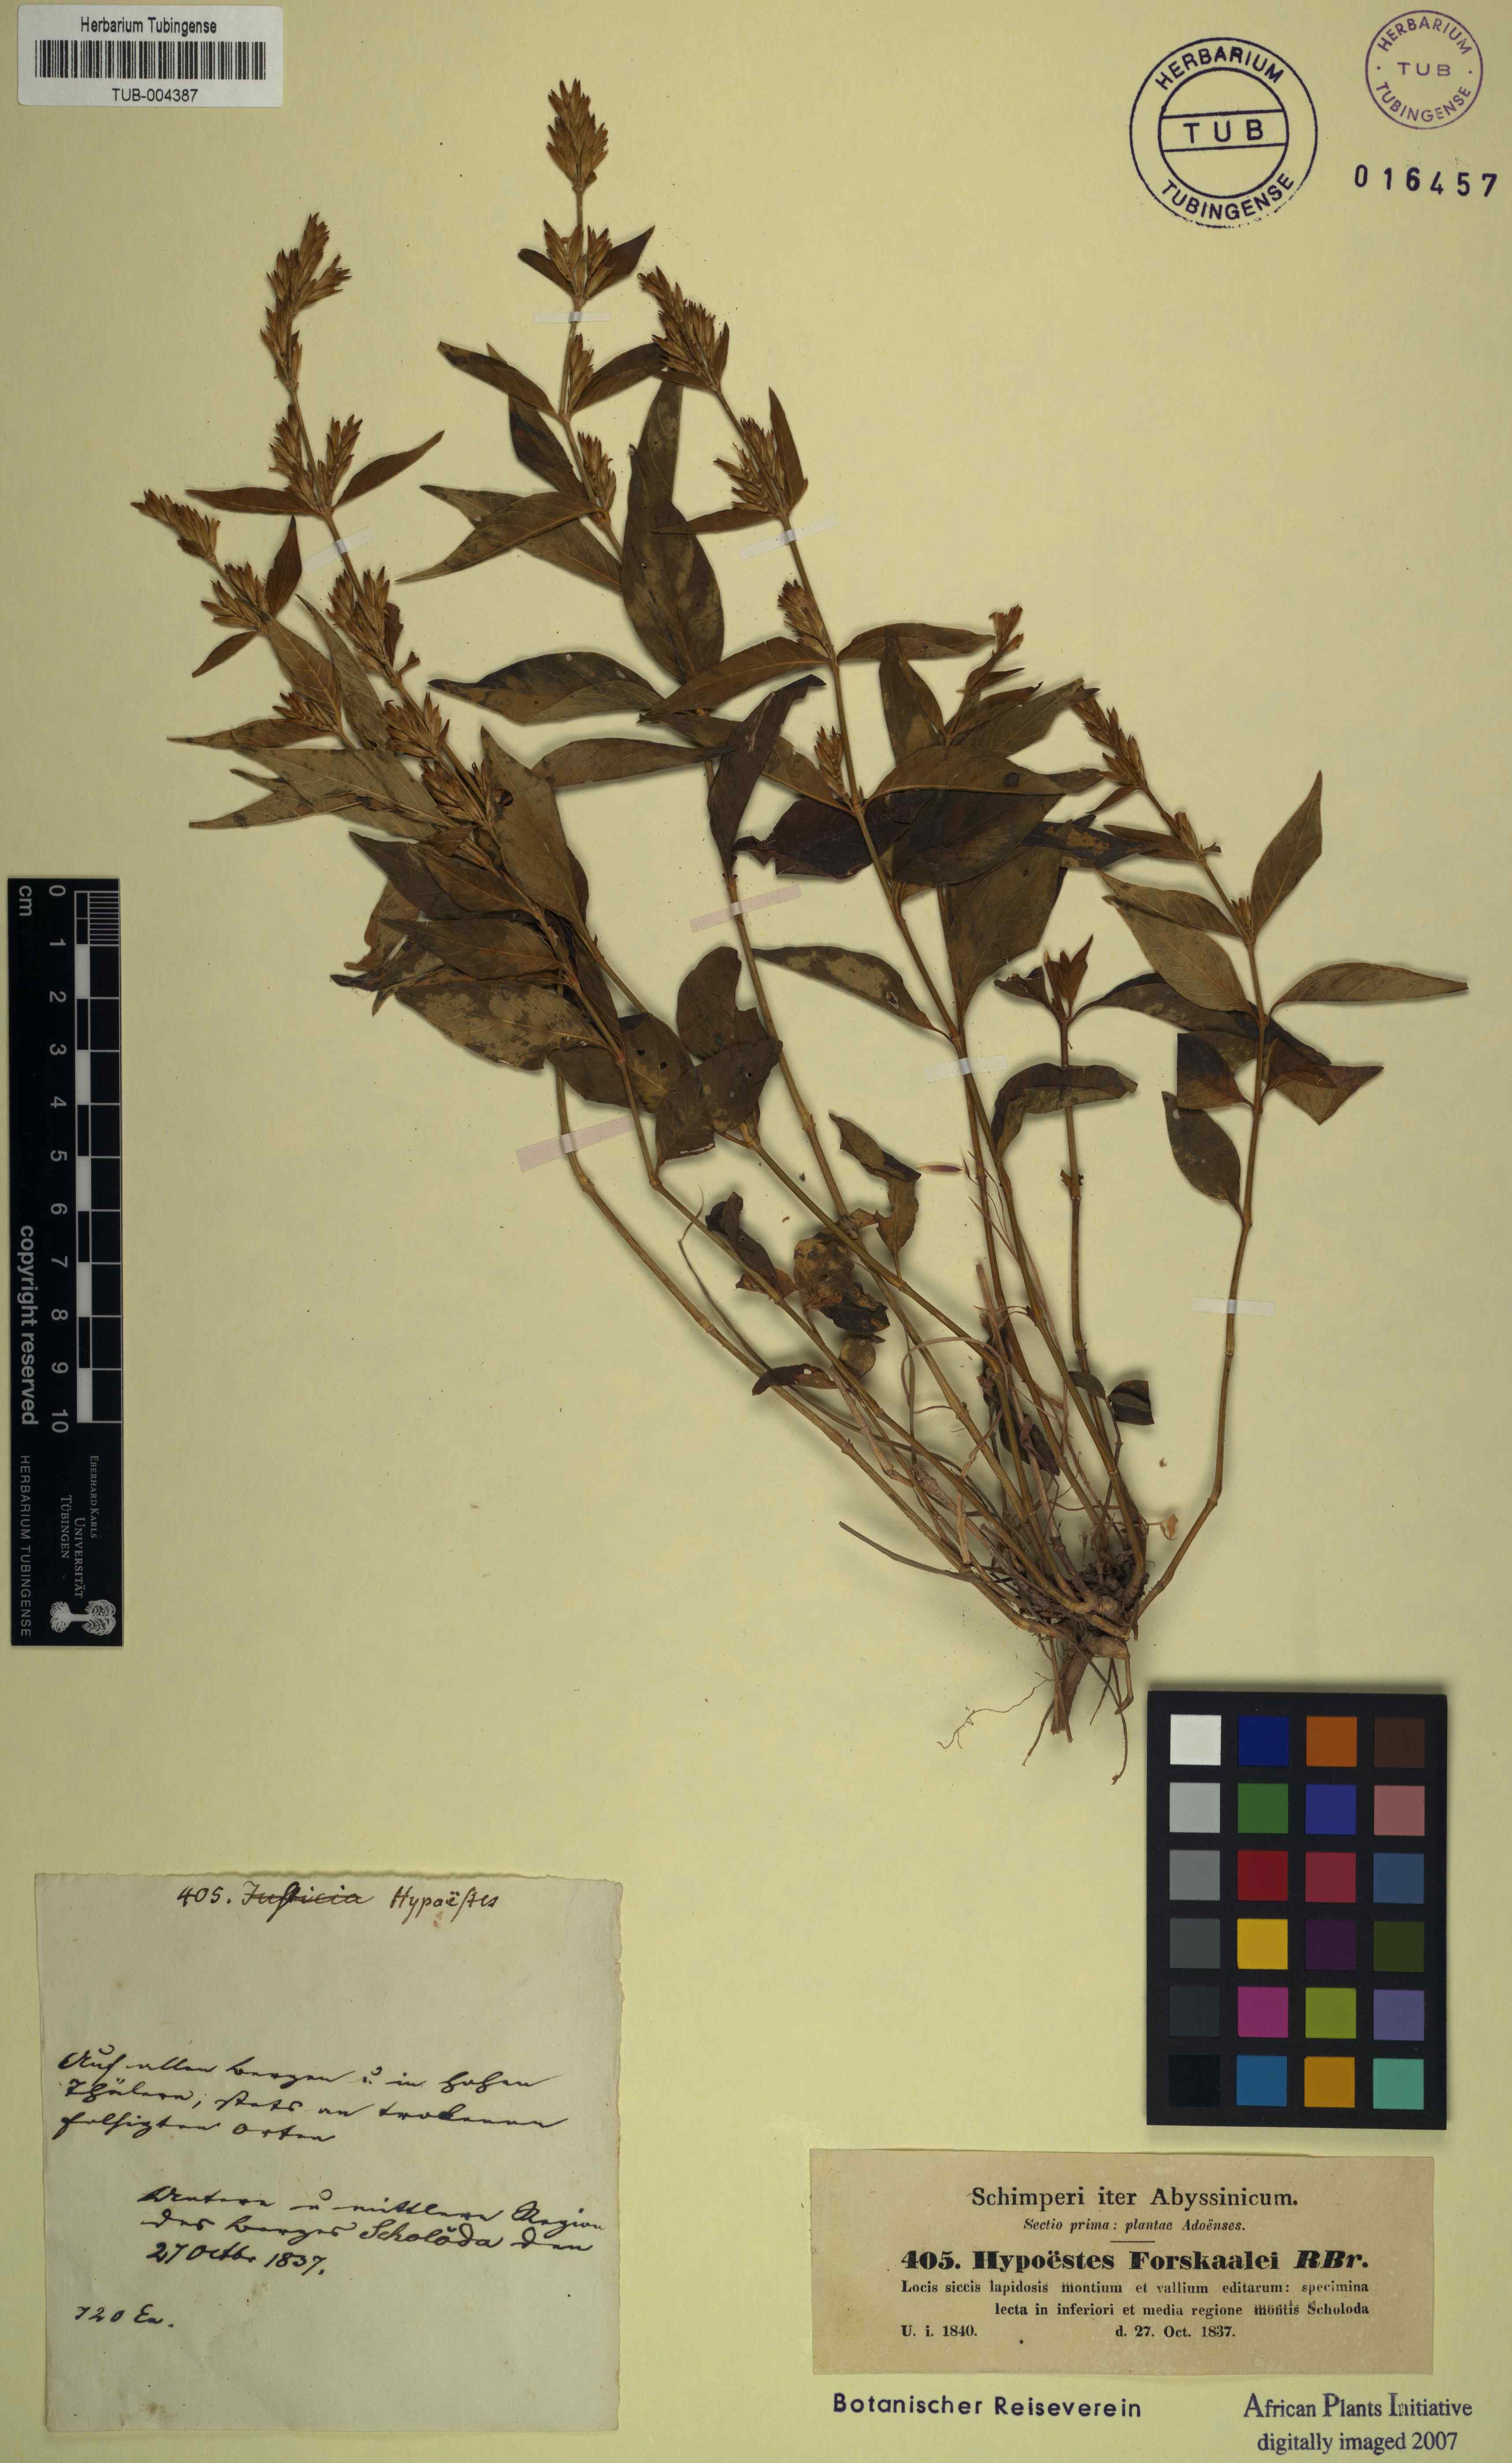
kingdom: Plantae
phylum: Tracheophyta
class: Magnoliopsida
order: Lamiales
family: Acanthaceae
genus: Hypoestes
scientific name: Hypoestes aristata
